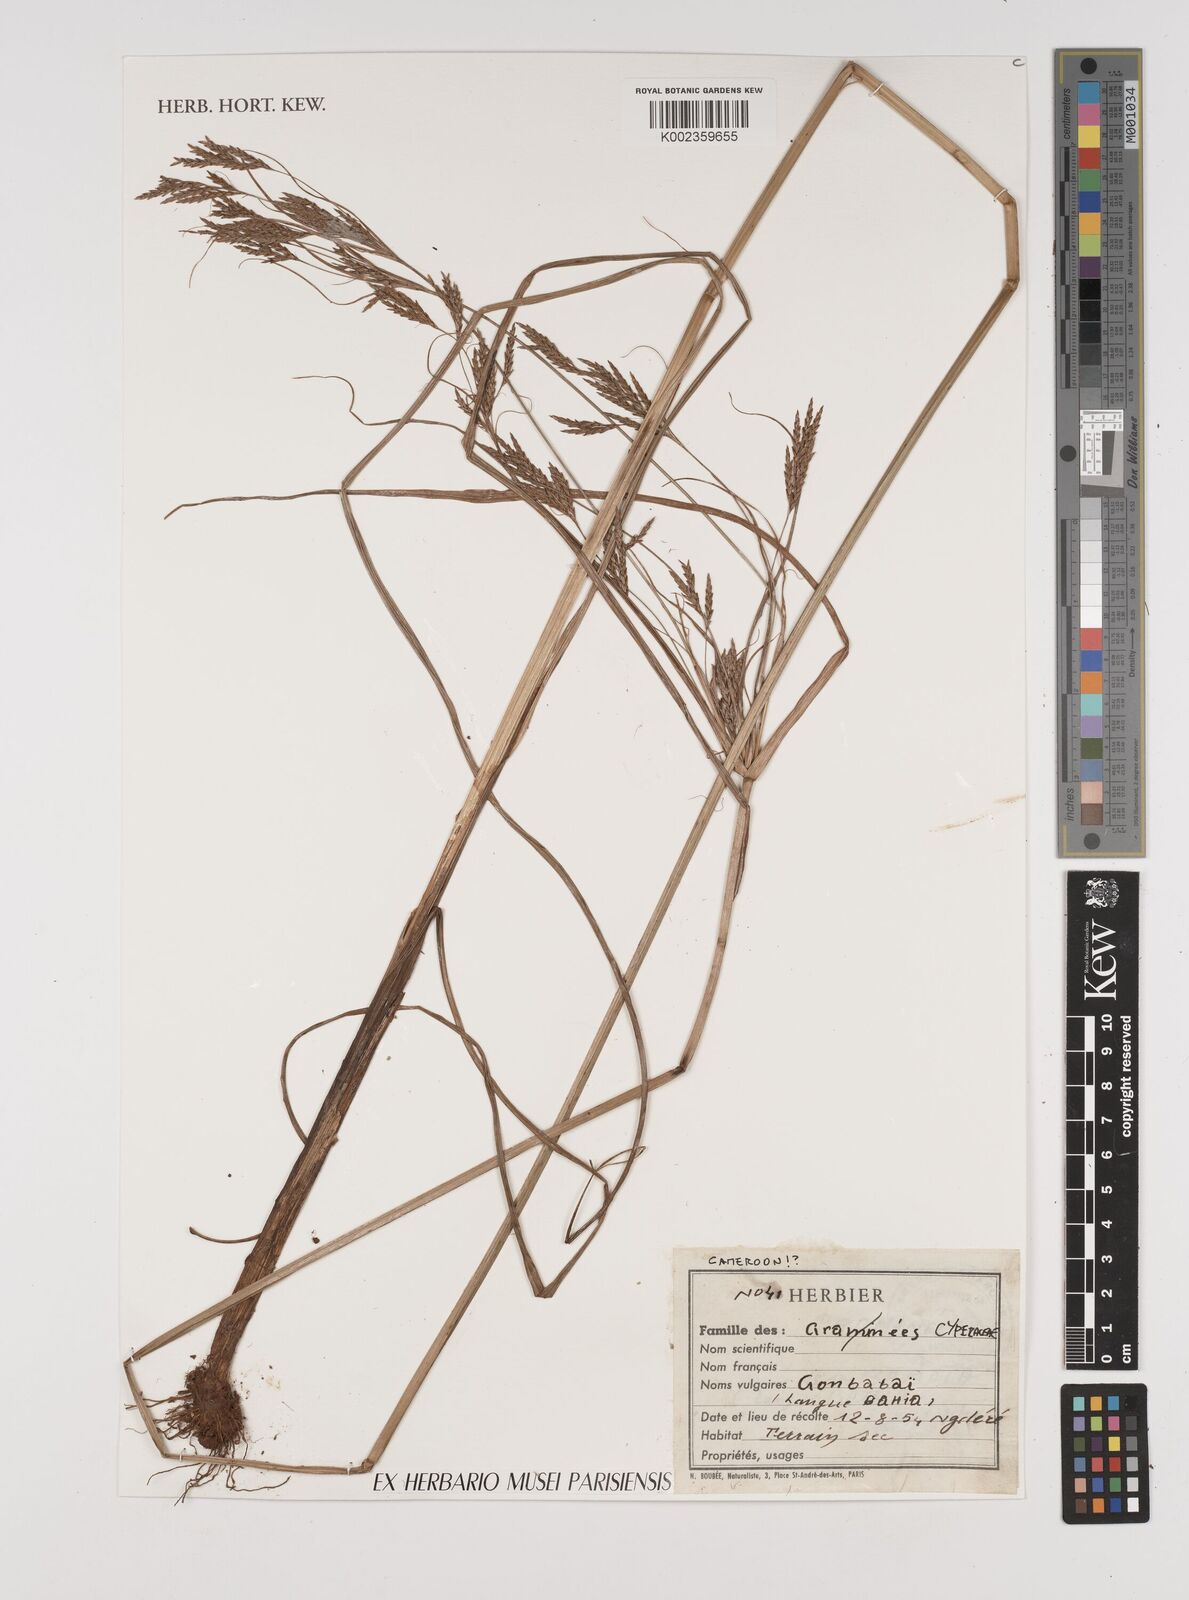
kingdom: Plantae
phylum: Tracheophyta
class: Liliopsida
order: Poales
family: Cyperaceae
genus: Cyperus
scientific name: Cyperus
